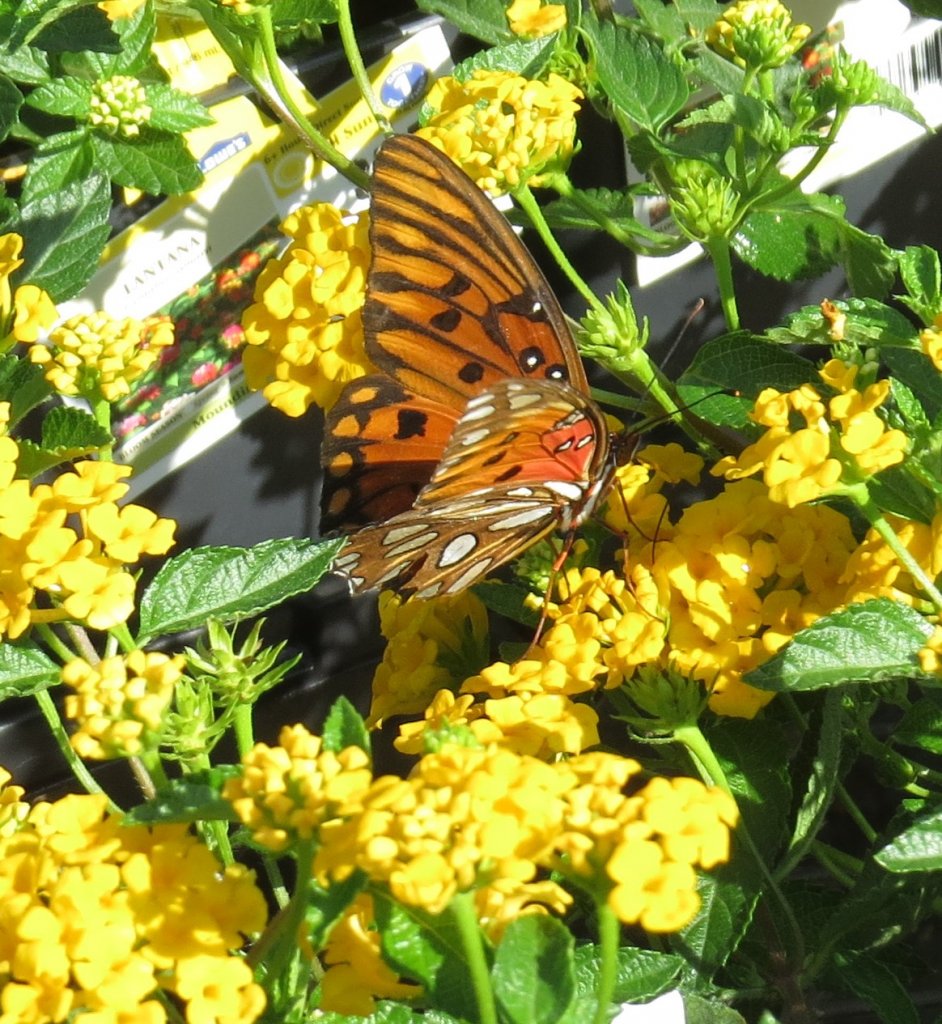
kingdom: Animalia
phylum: Arthropoda
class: Insecta
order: Lepidoptera
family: Nymphalidae
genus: Dione
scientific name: Dione vanillae
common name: Gulf Fritillary
